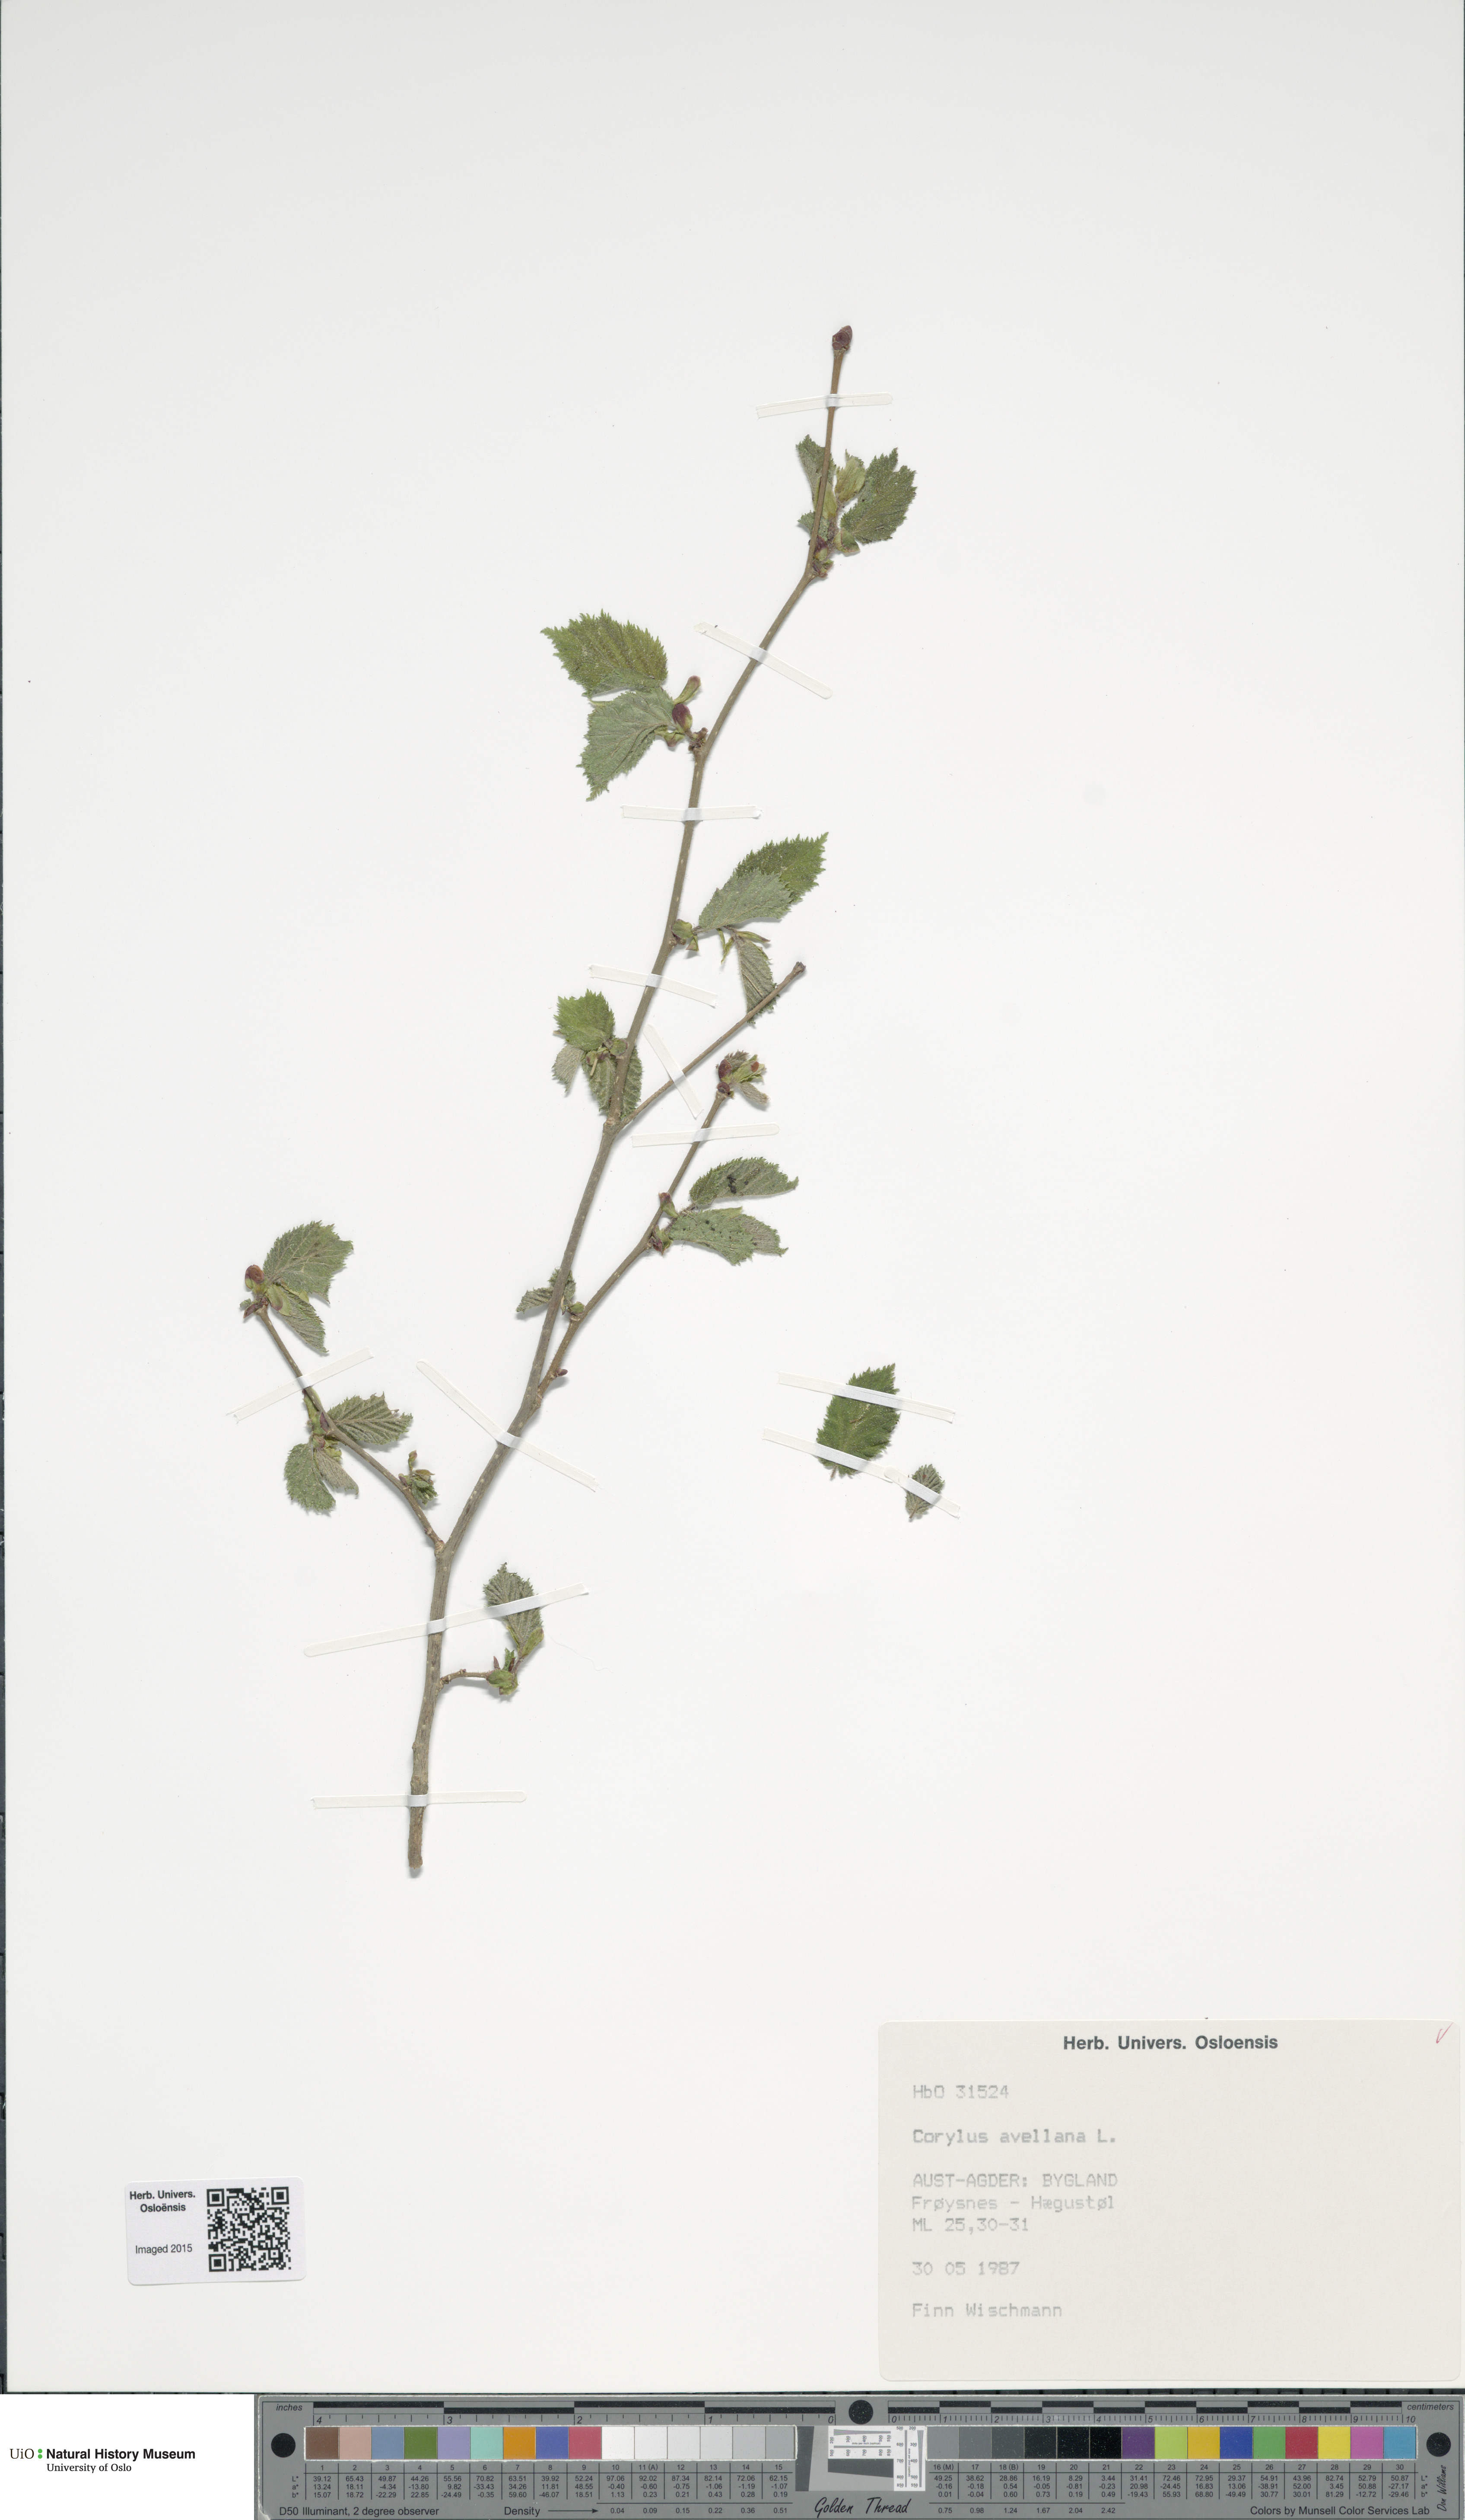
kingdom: Plantae
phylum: Tracheophyta
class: Magnoliopsida
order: Fagales
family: Betulaceae
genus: Corylus
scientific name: Corylus avellana
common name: European hazel
